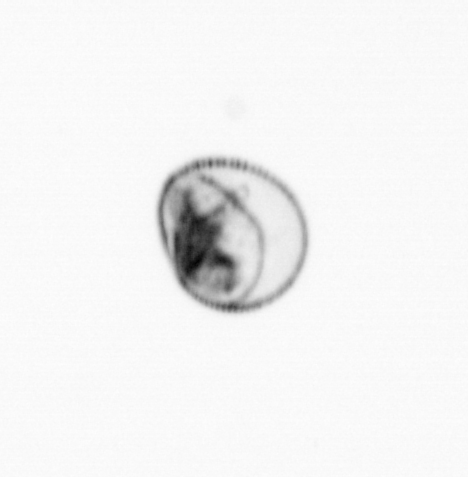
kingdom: Chromista
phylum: Myzozoa
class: Dinophyceae
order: Noctilucales
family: Noctilucaceae
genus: Noctiluca
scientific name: Noctiluca scintillans
